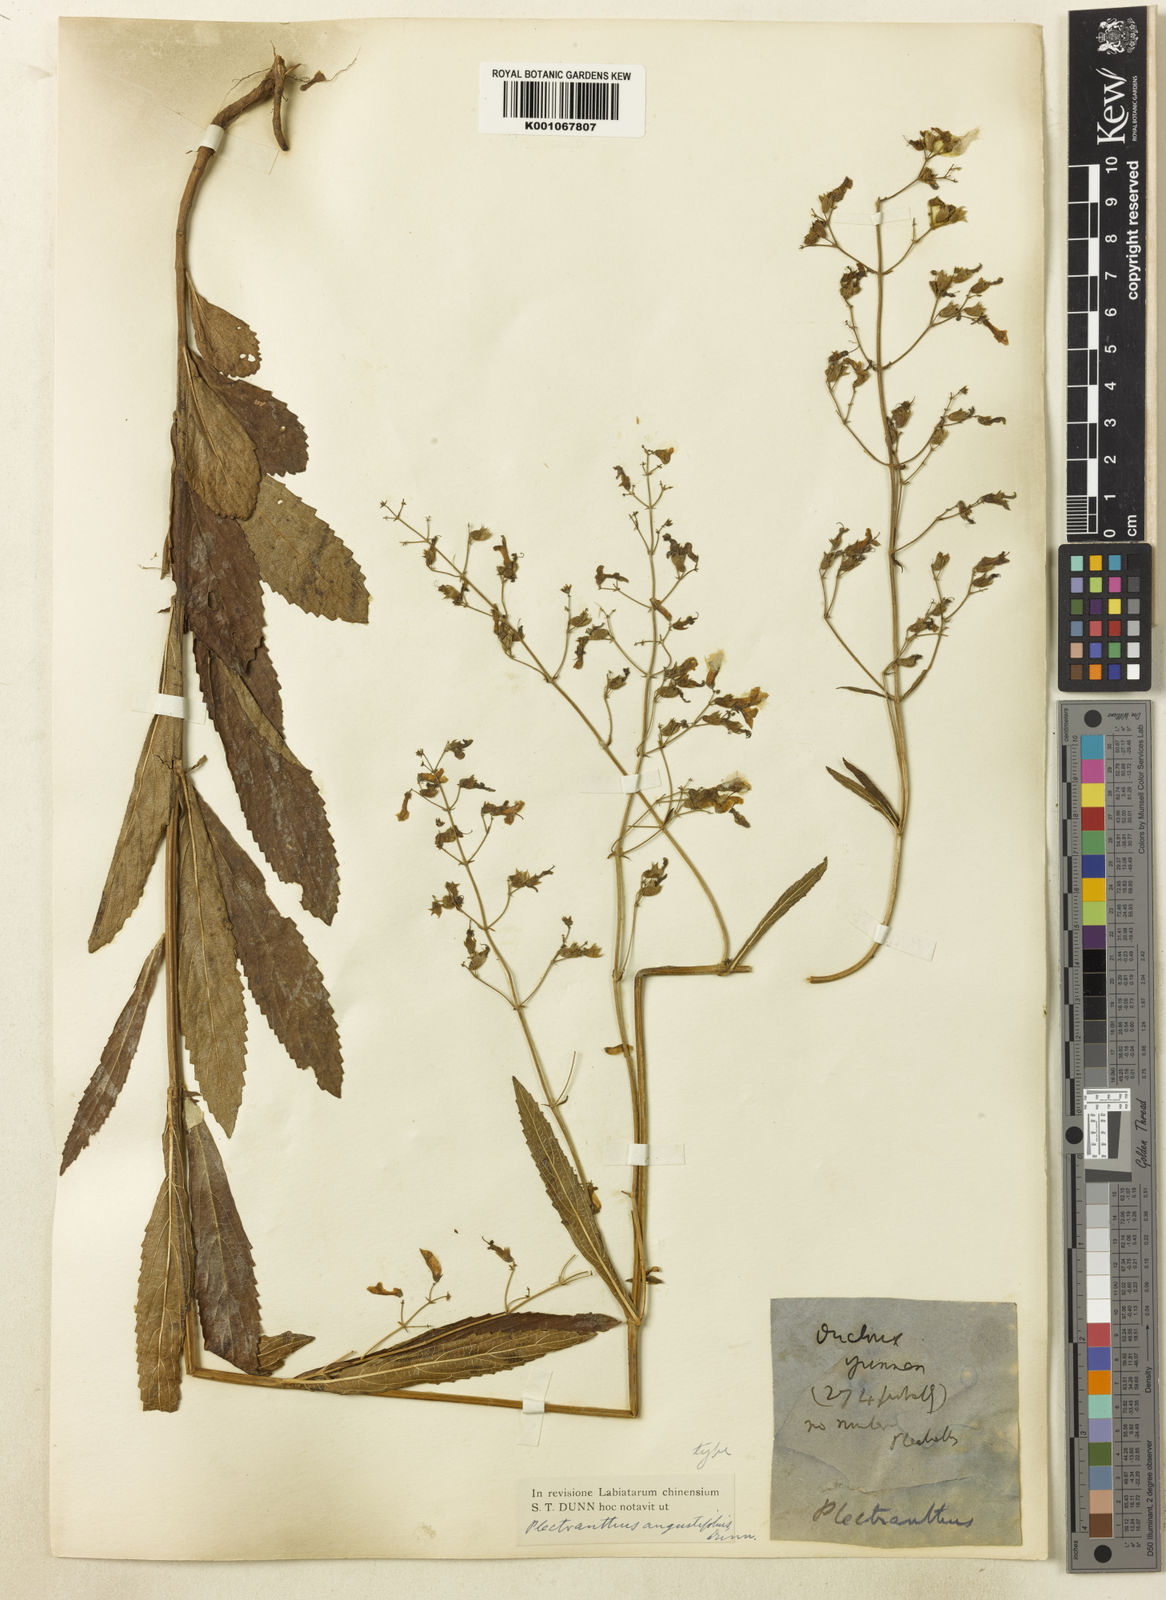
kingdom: Plantae
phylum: Tracheophyta
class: Magnoliopsida
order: Lamiales
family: Lamiaceae
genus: Isodon
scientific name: Isodon
